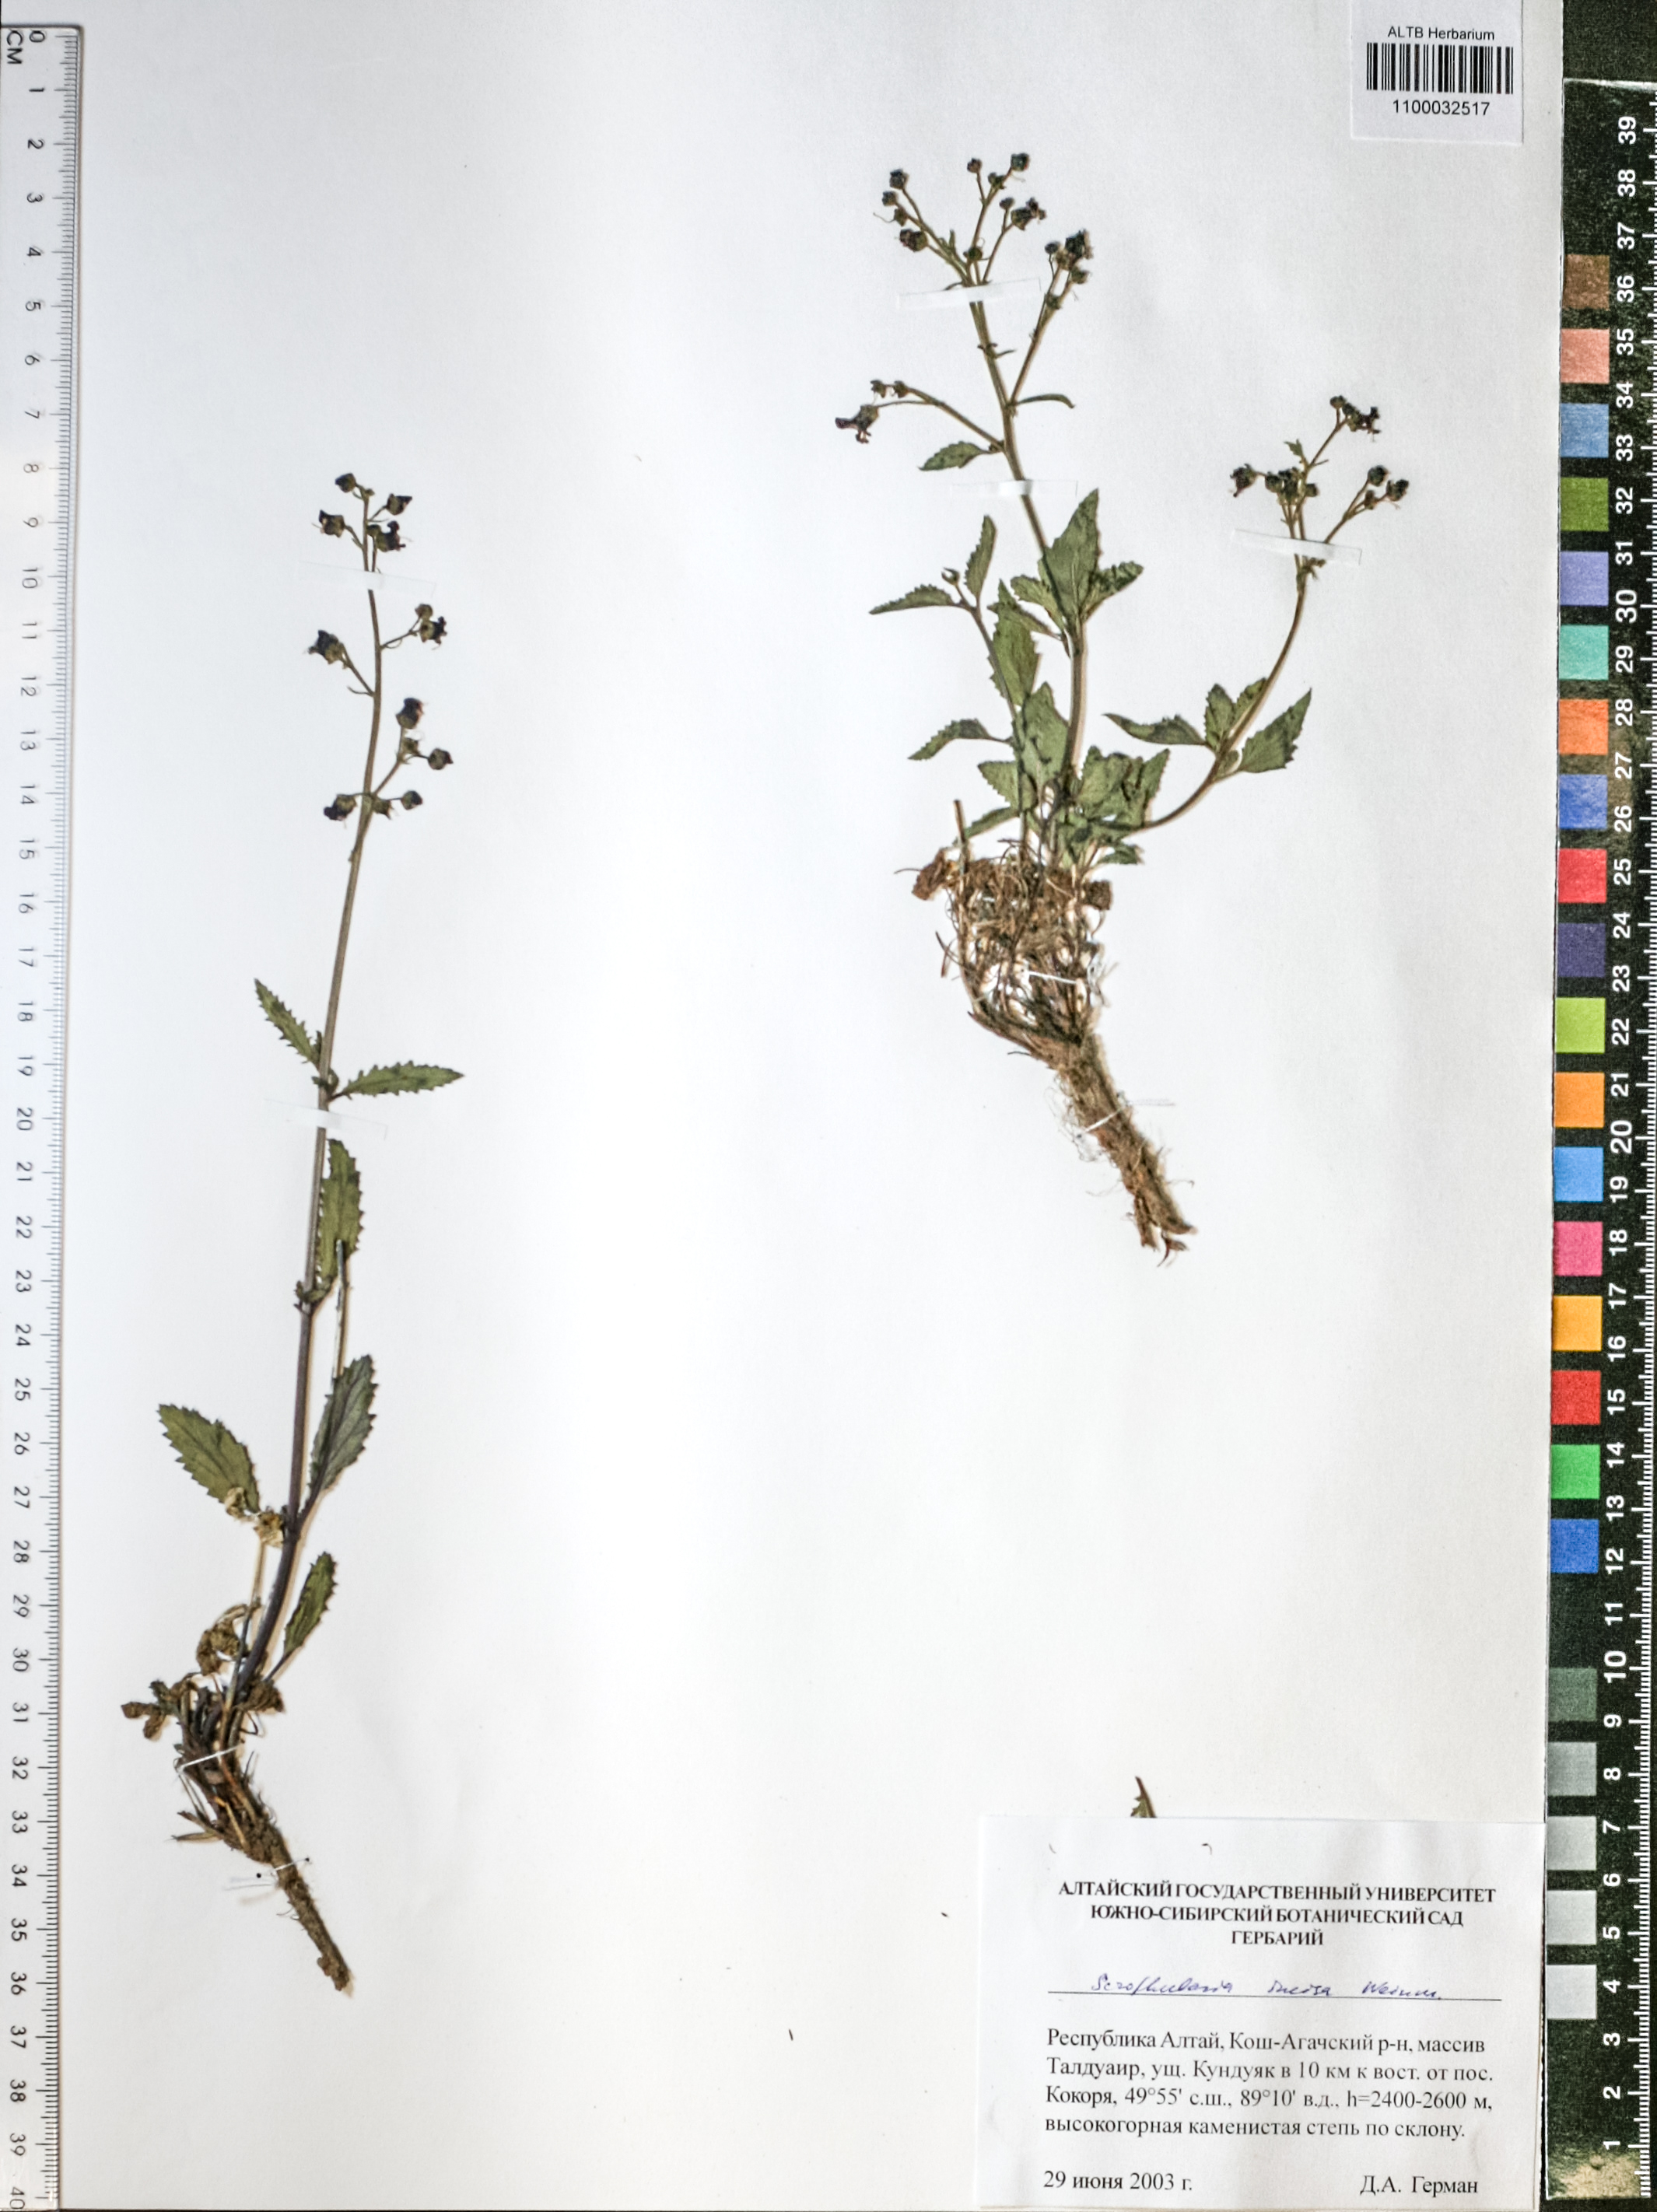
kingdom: Plantae
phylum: Tracheophyta
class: Magnoliopsida
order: Lamiales
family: Scrophulariaceae
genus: Scrophularia
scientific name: Scrophularia incisa
